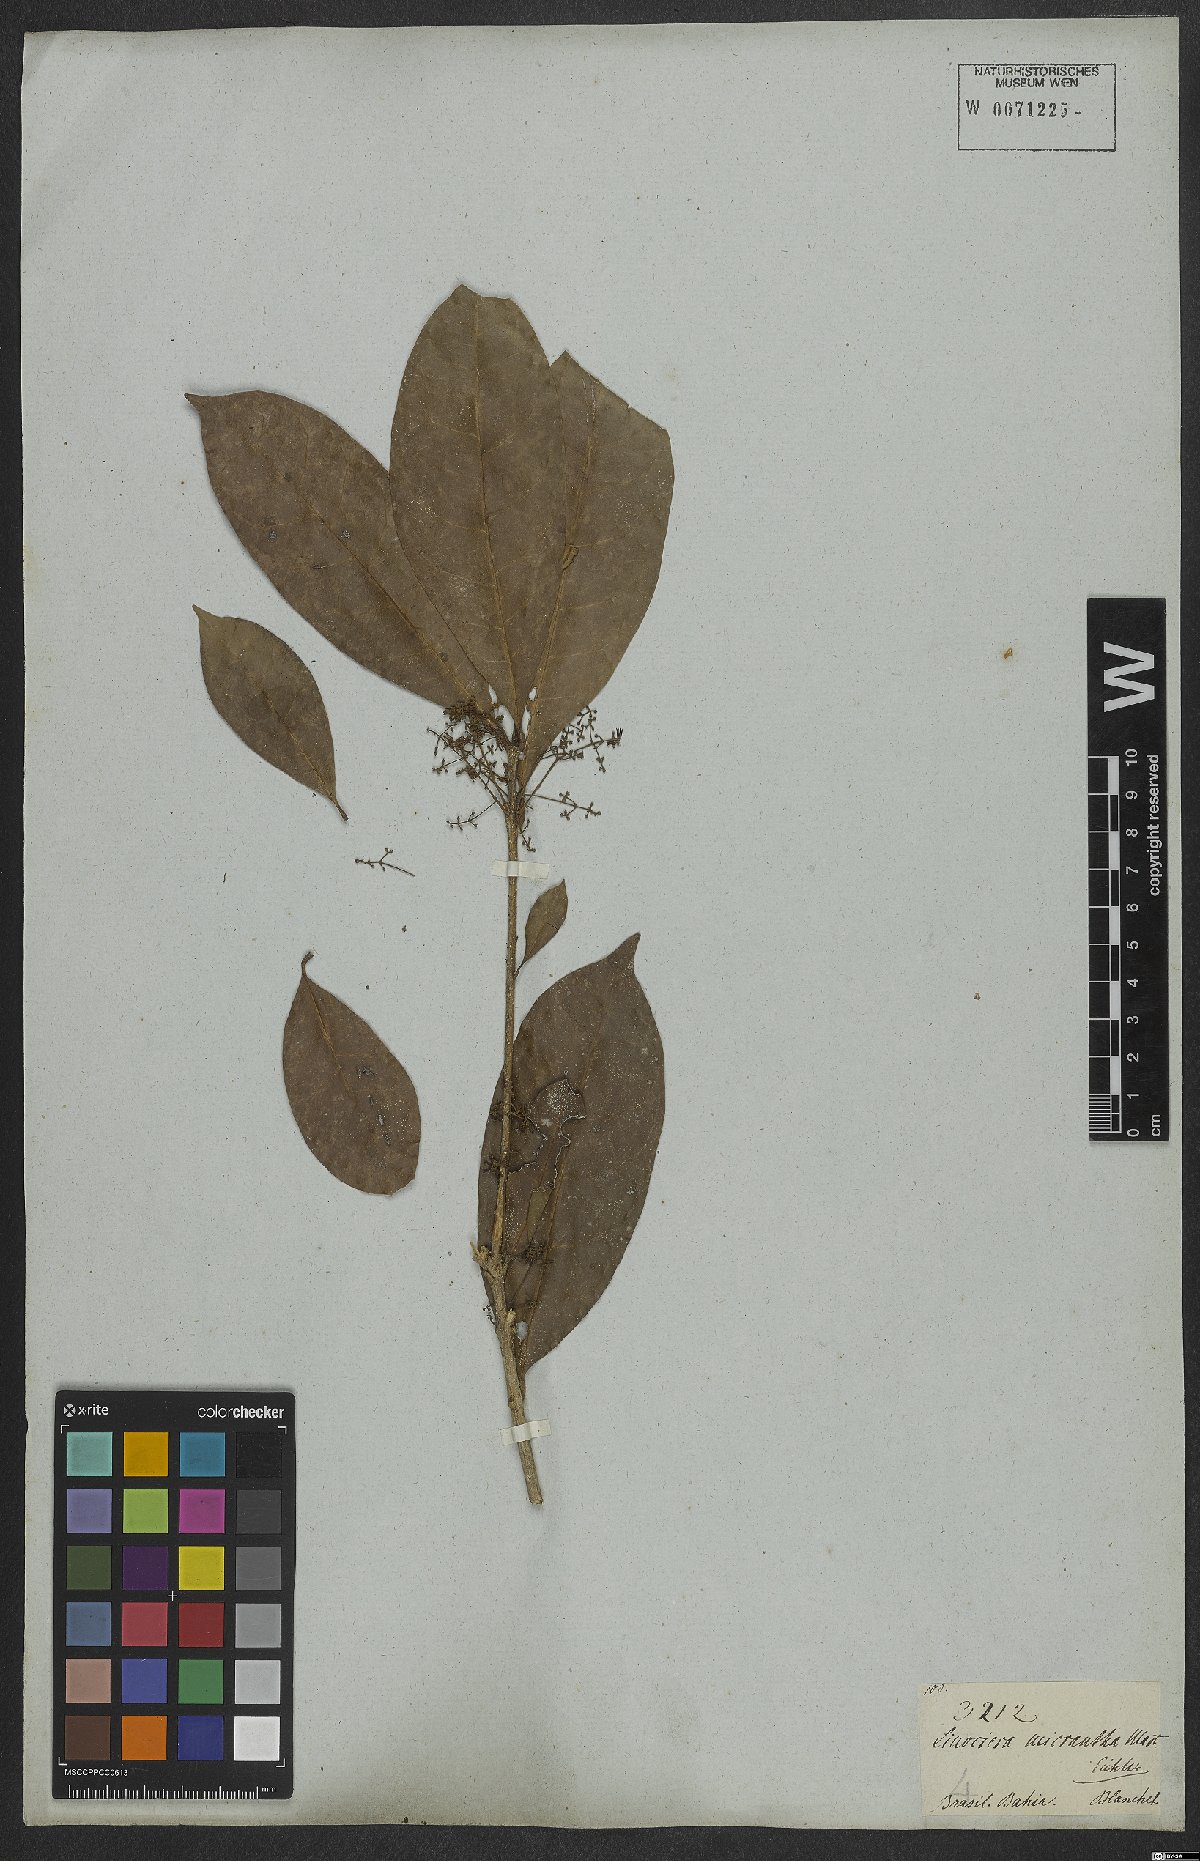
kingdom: Plantae
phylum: Tracheophyta
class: Magnoliopsida
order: Lamiales
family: Oleaceae
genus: Chionanthus
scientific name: Chionanthus micranthus
